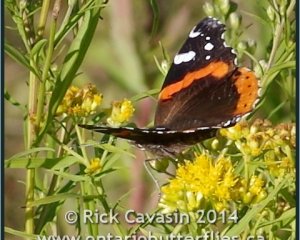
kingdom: Animalia
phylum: Arthropoda
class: Insecta
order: Lepidoptera
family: Nymphalidae
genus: Vanessa
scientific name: Vanessa atalanta
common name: Red Admiral
